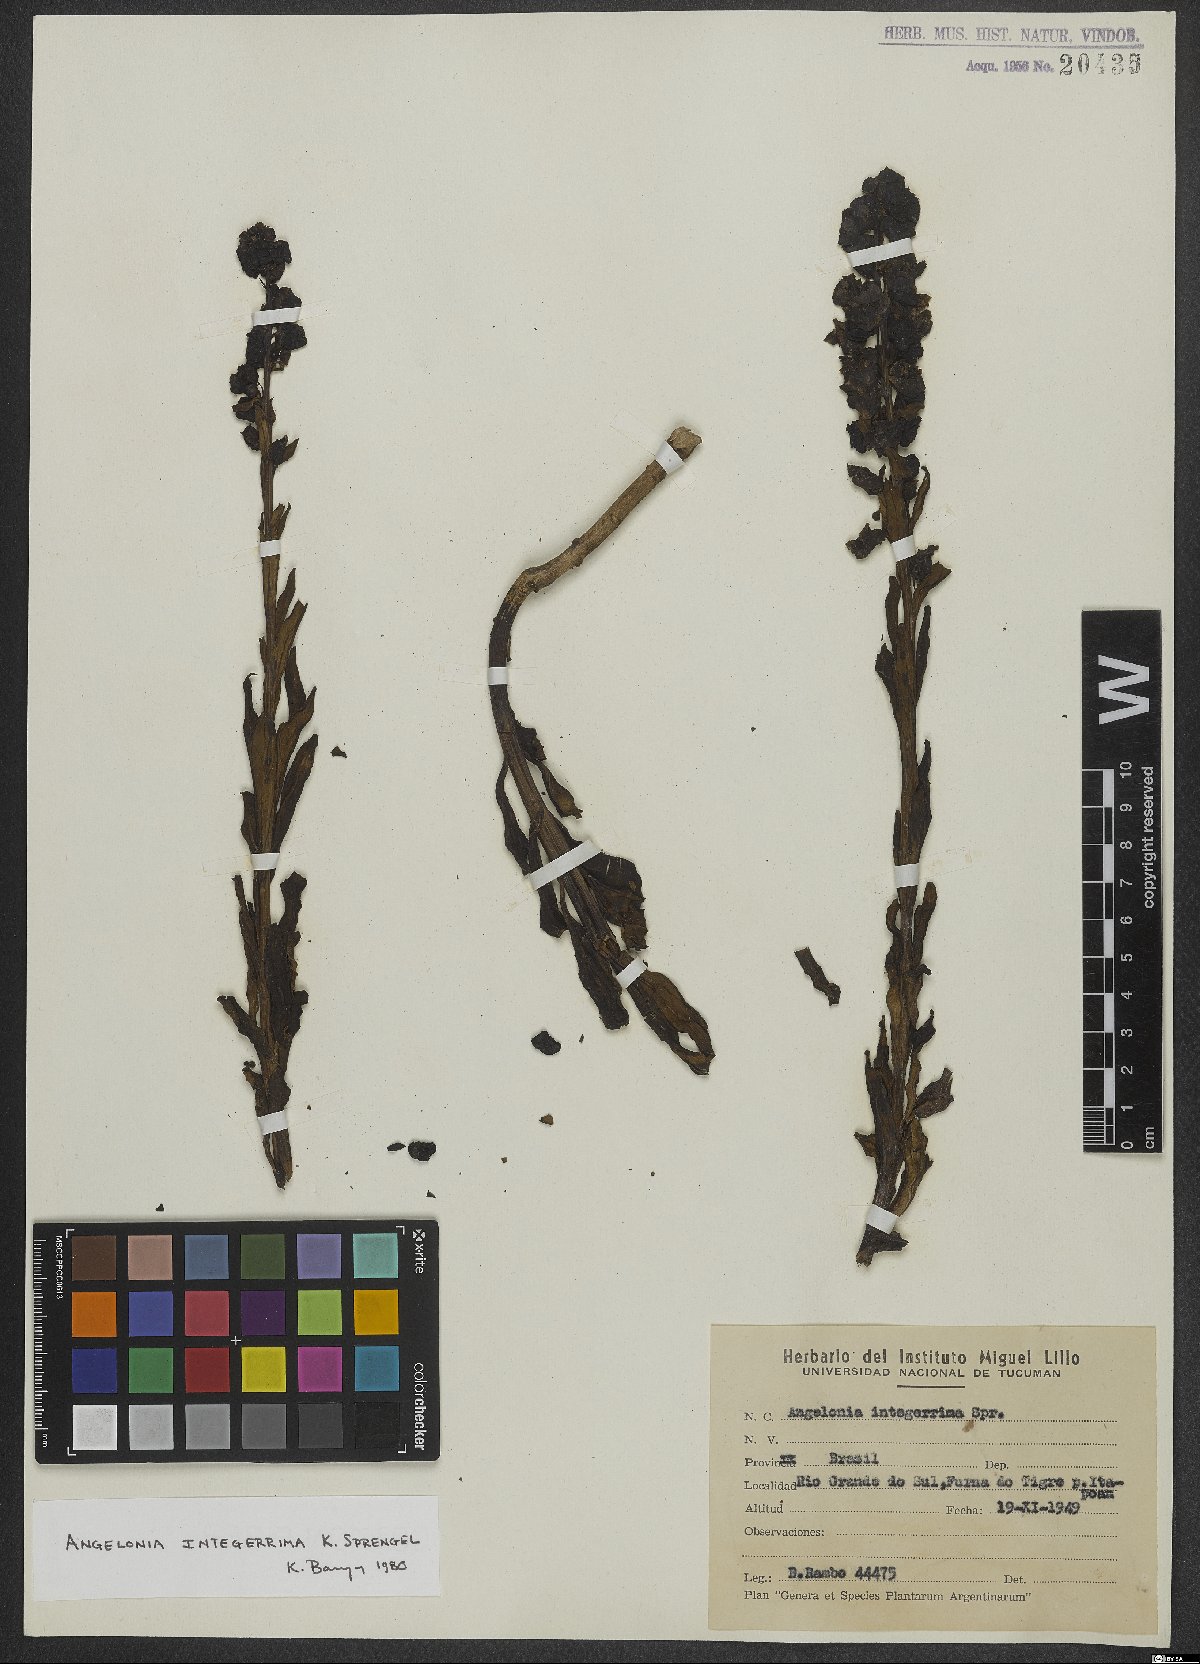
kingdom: Plantae
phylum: Tracheophyta
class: Magnoliopsida
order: Lamiales
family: Plantaginaceae
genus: Angelonia
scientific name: Angelonia integerrima
